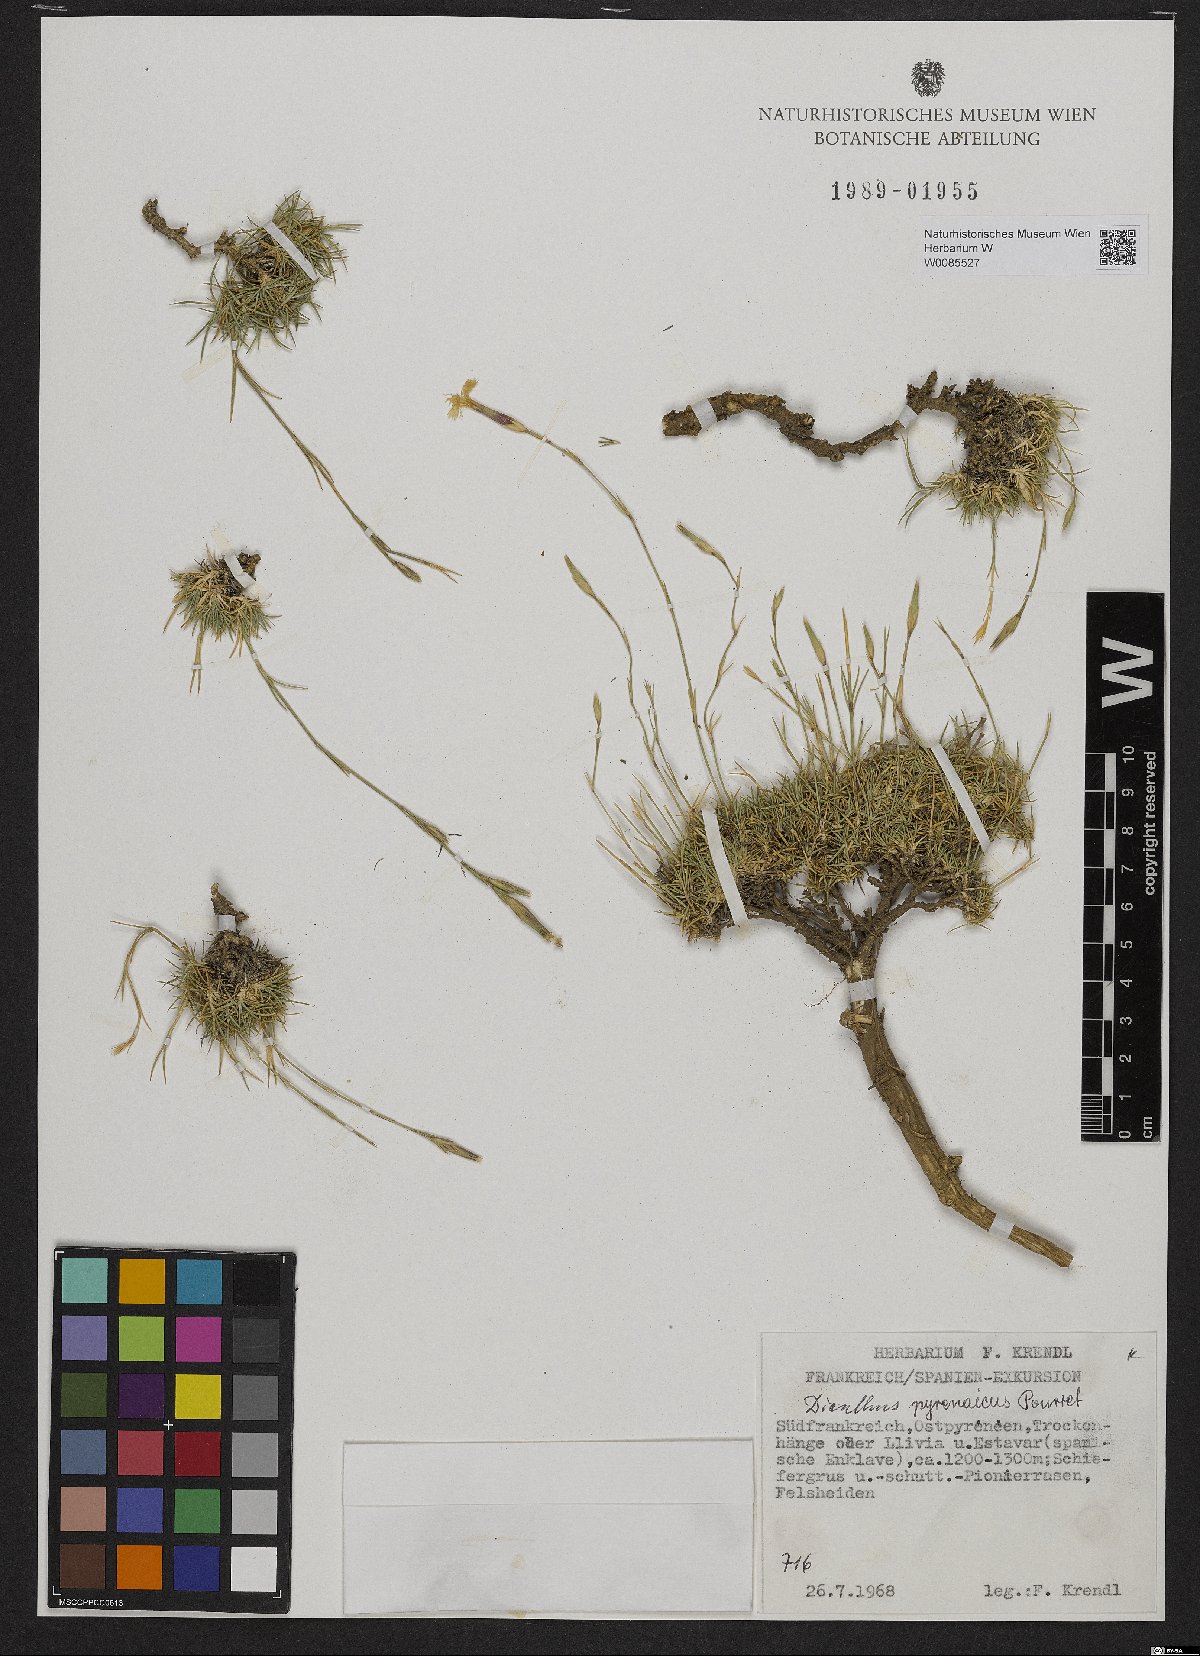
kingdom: Plantae
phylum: Tracheophyta
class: Magnoliopsida
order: Caryophyllales
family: Caryophyllaceae
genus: Dianthus
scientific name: Dianthus pyrenaicus
